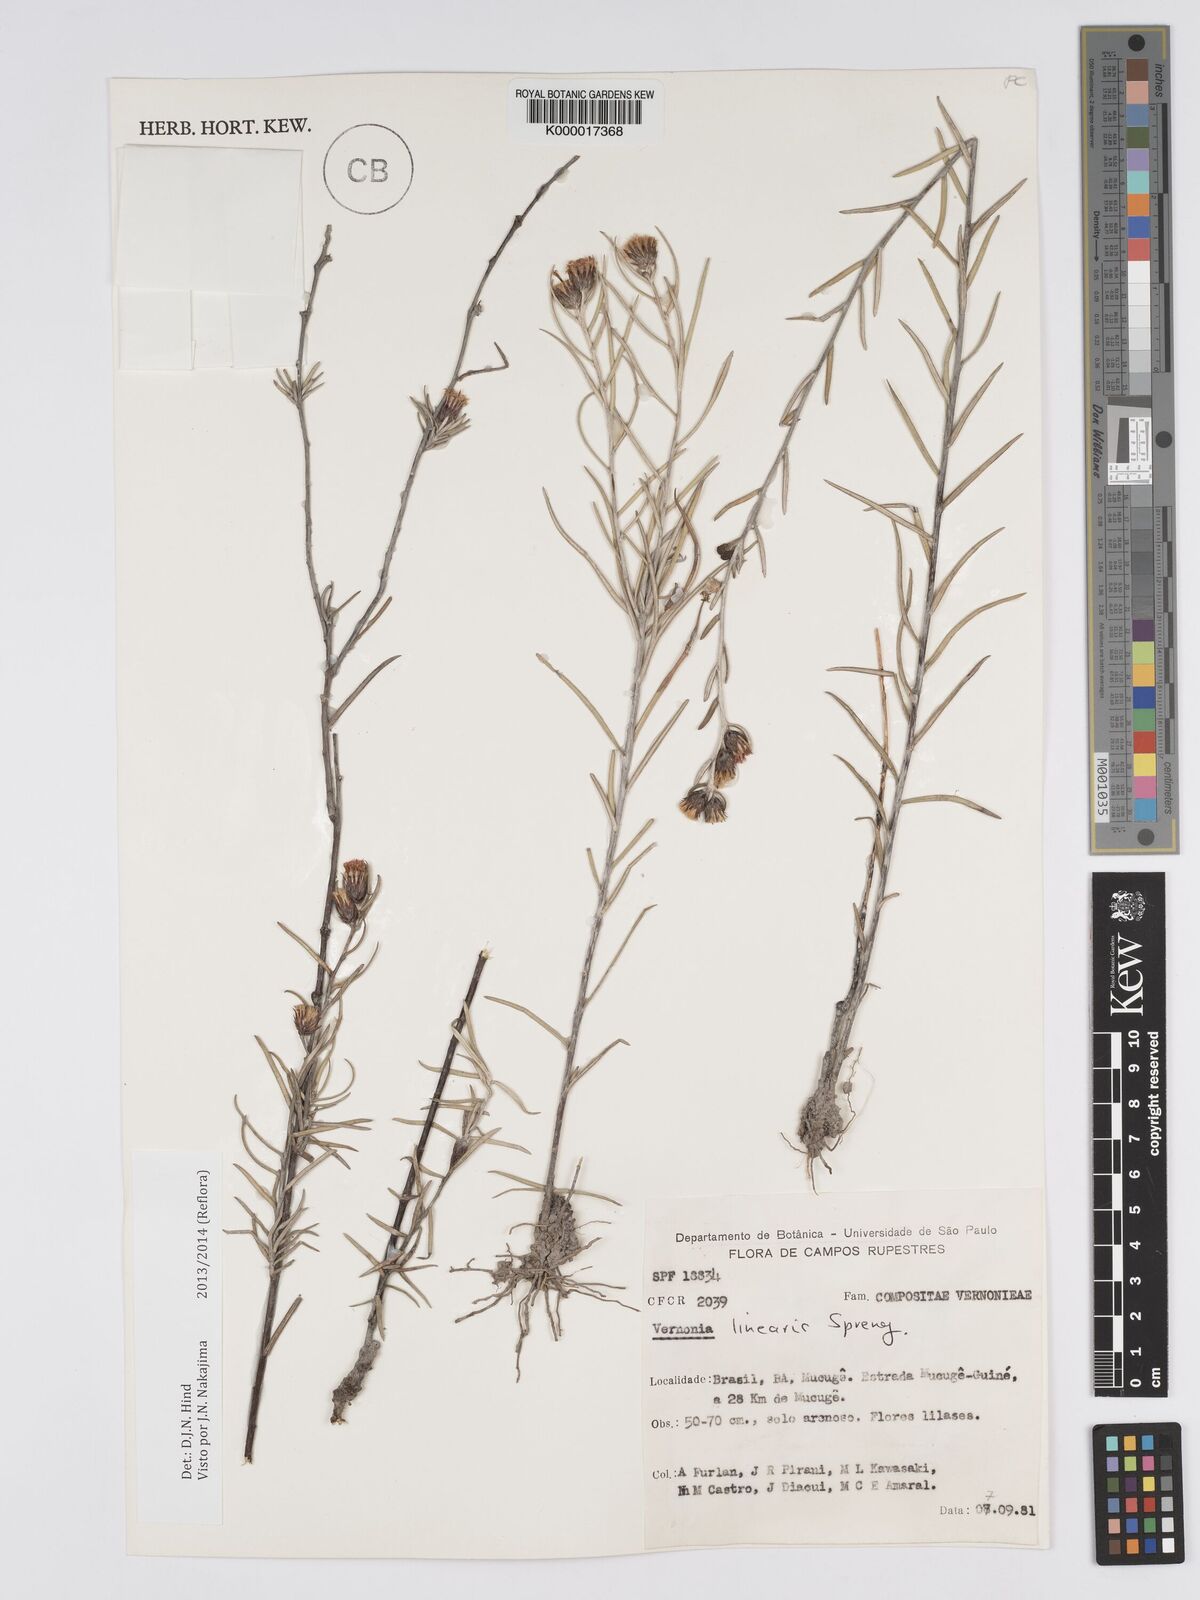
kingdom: Plantae
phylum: Tracheophyta
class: Magnoliopsida
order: Asterales
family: Asteraceae
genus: Lessingianthus
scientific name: Lessingianthus linearis
